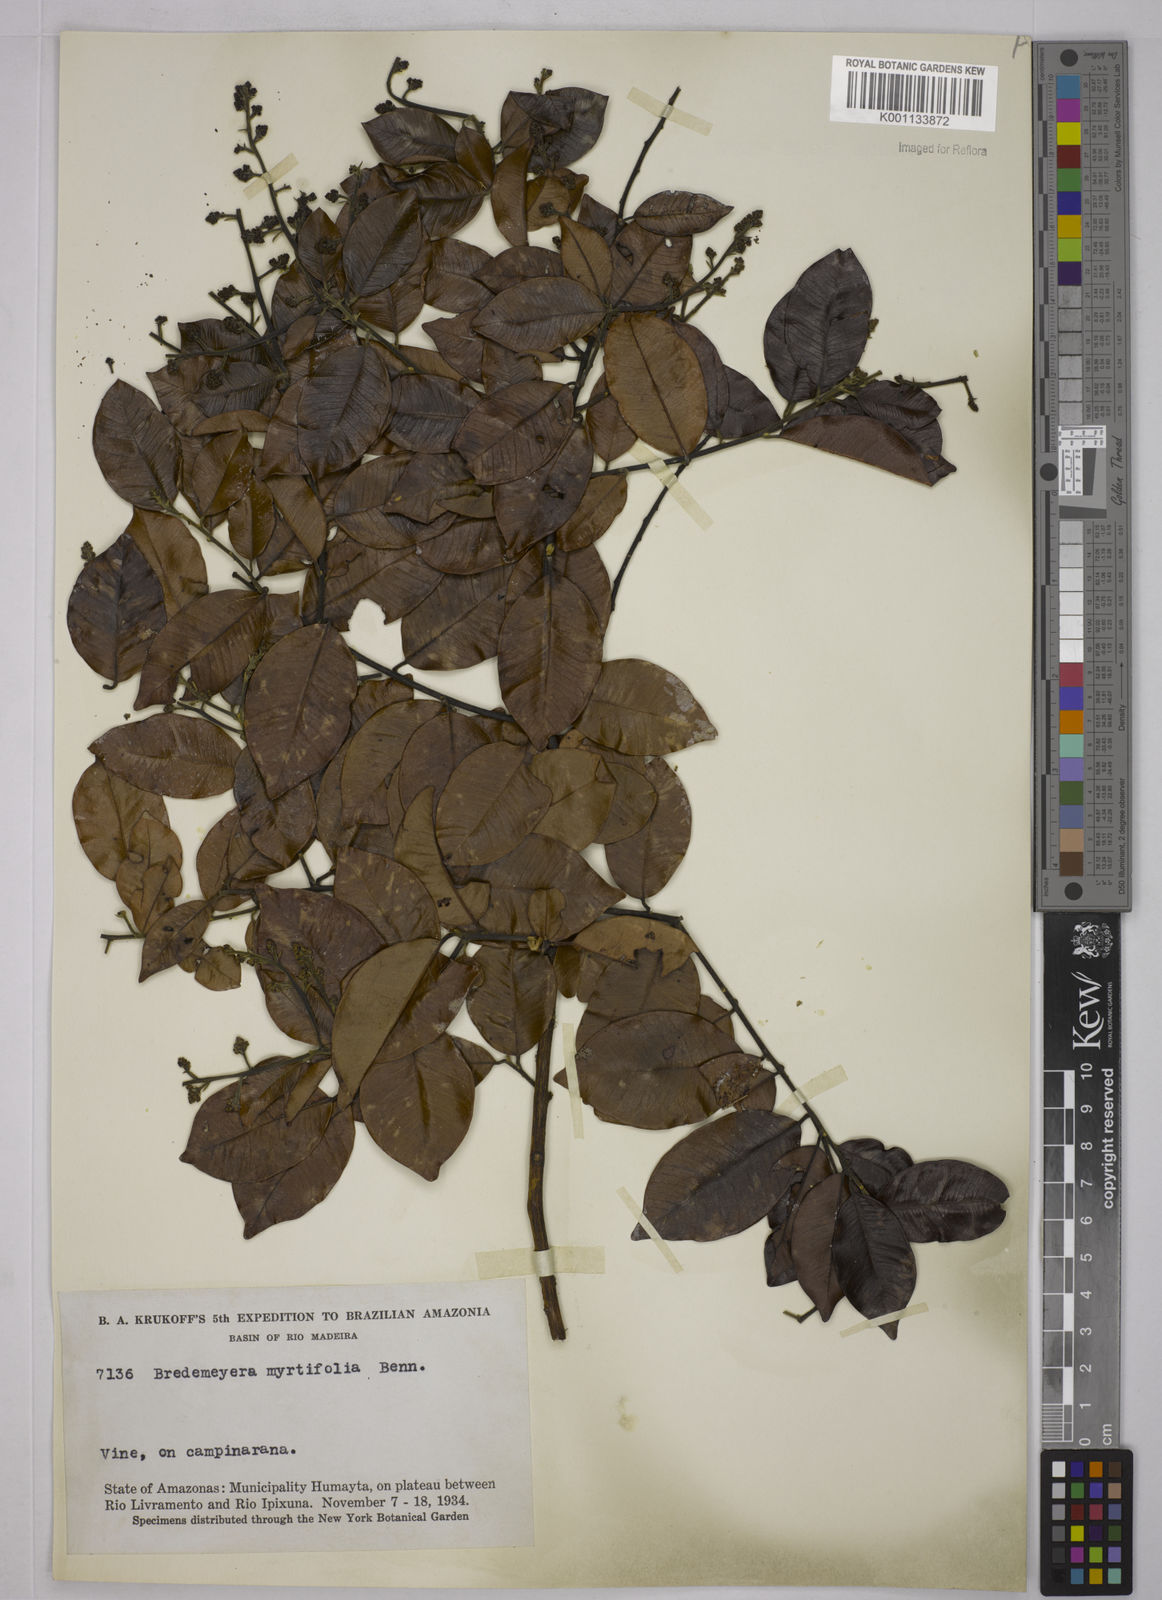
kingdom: Plantae
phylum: Tracheophyta
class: Magnoliopsida
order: Fabales
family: Polygalaceae
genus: Bredemeyera
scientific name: Bredemeyera
